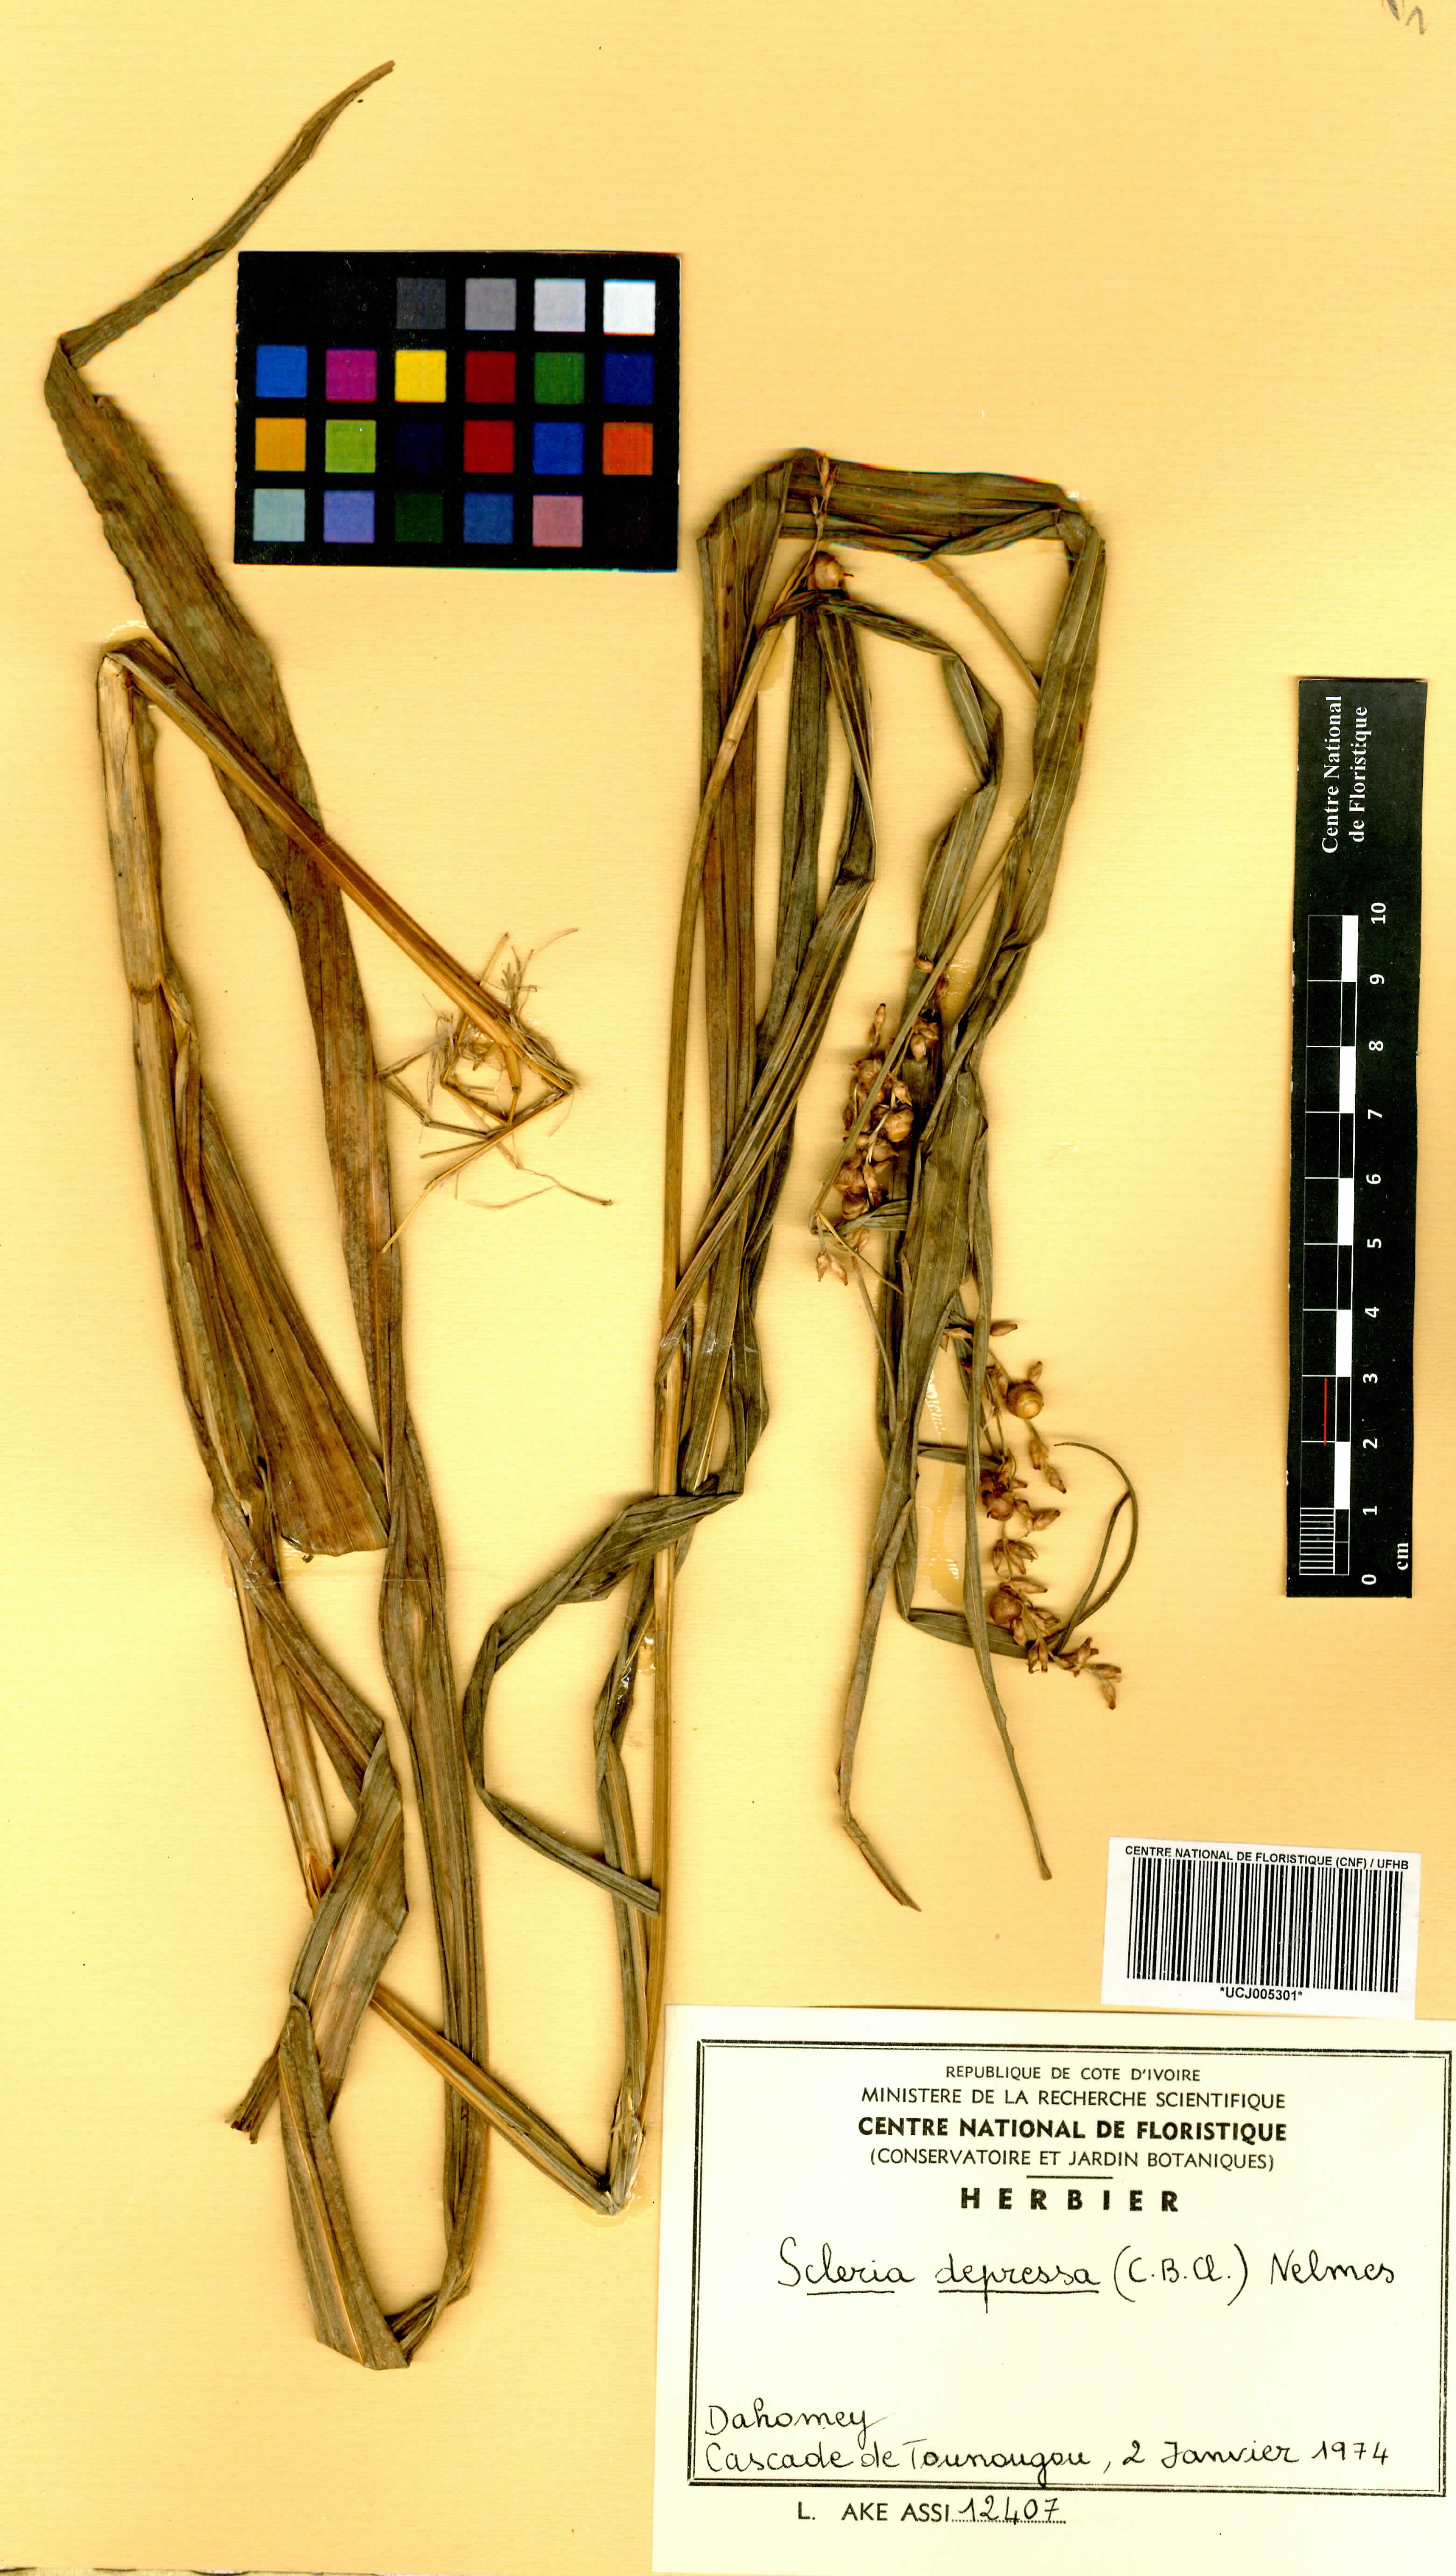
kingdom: Plantae
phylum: Tracheophyta
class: Liliopsida
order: Poales
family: Cyperaceae
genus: Scleria
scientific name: Scleria depressa
